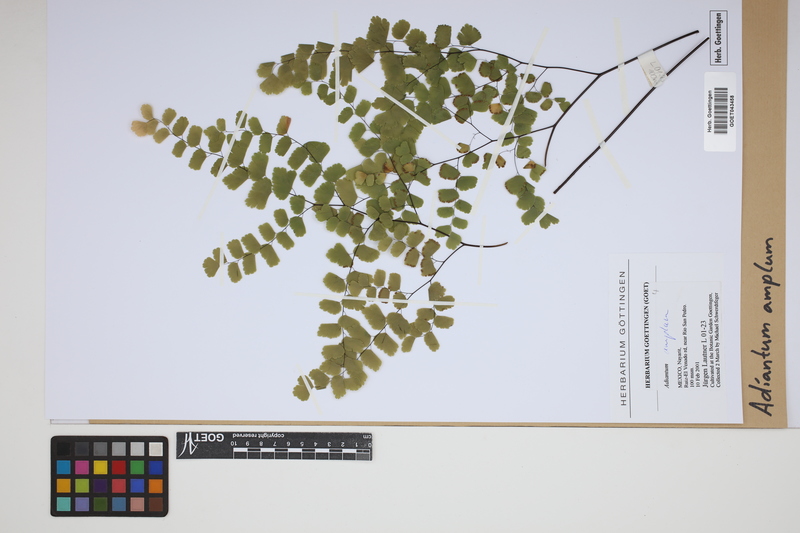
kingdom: Plantae
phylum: Tracheophyta
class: Polypodiopsida
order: Polypodiales
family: Pteridaceae
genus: Adiantum
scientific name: Adiantum amplum
